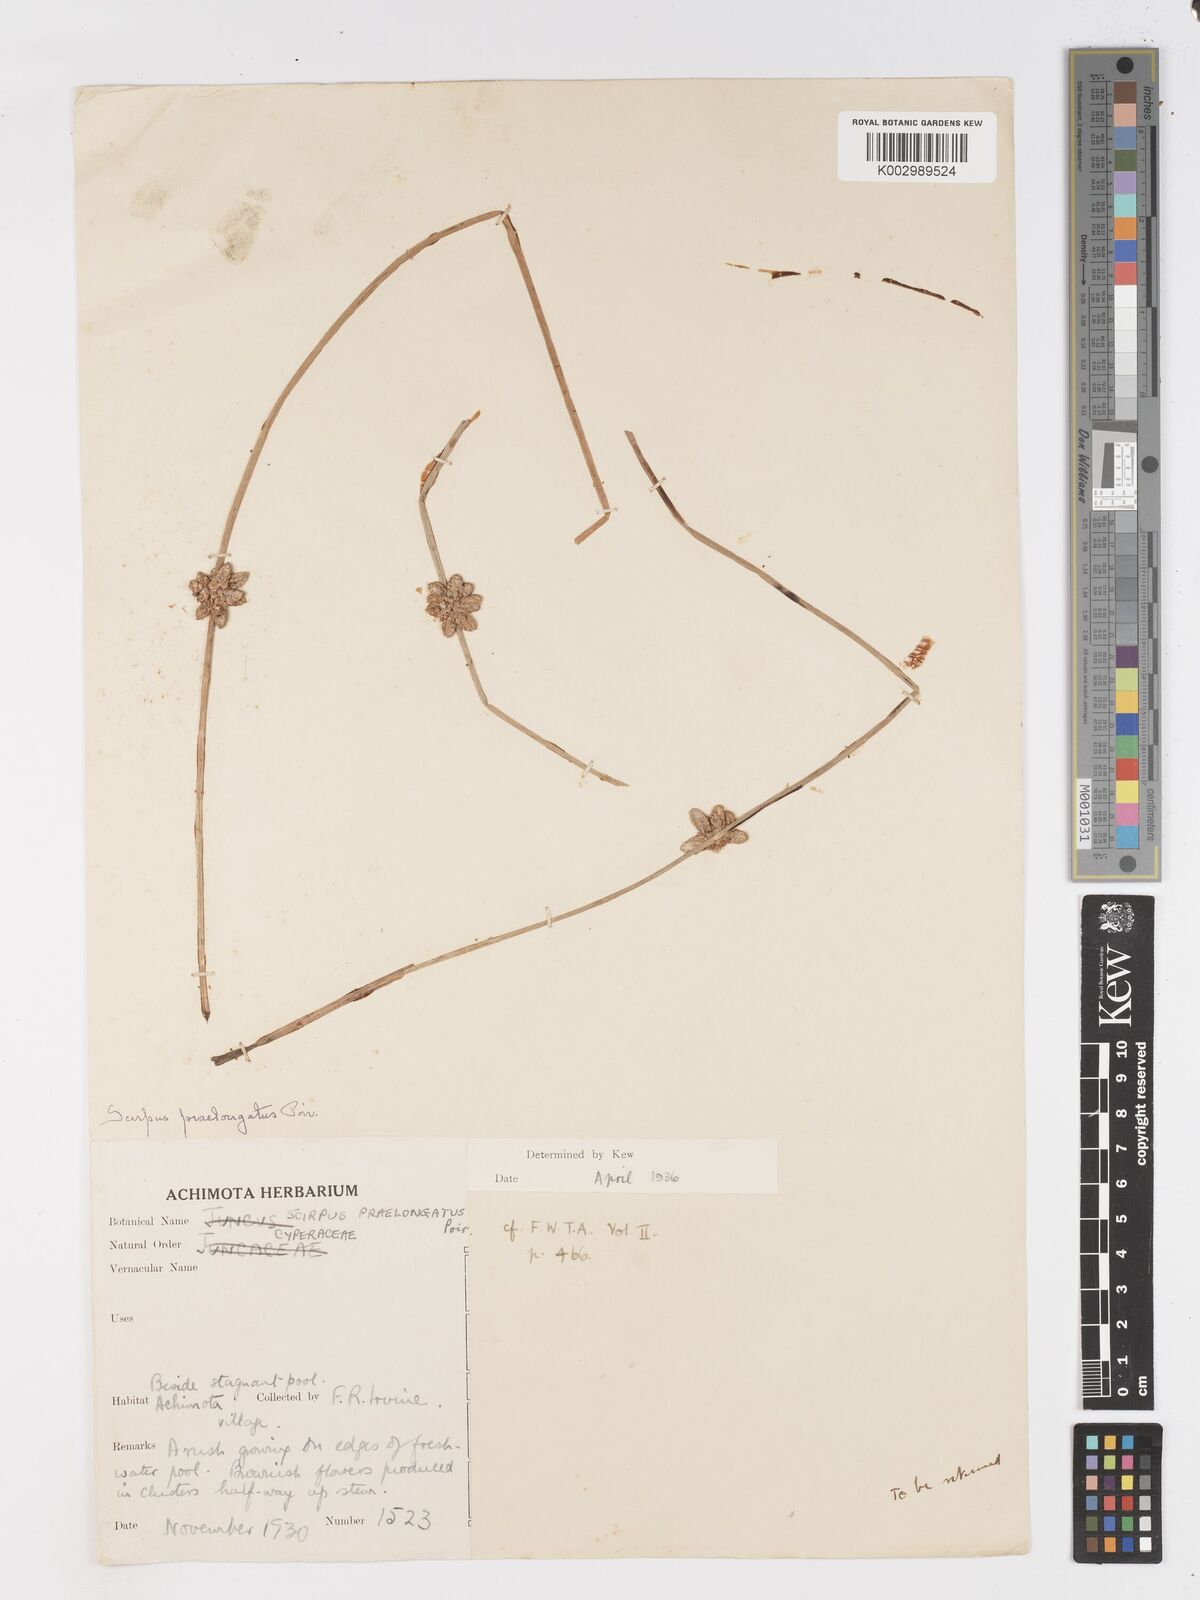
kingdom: Plantae
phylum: Tracheophyta
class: Liliopsida
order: Poales
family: Cyperaceae
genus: Schoenoplectiella
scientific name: Schoenoplectiella senegalensis
